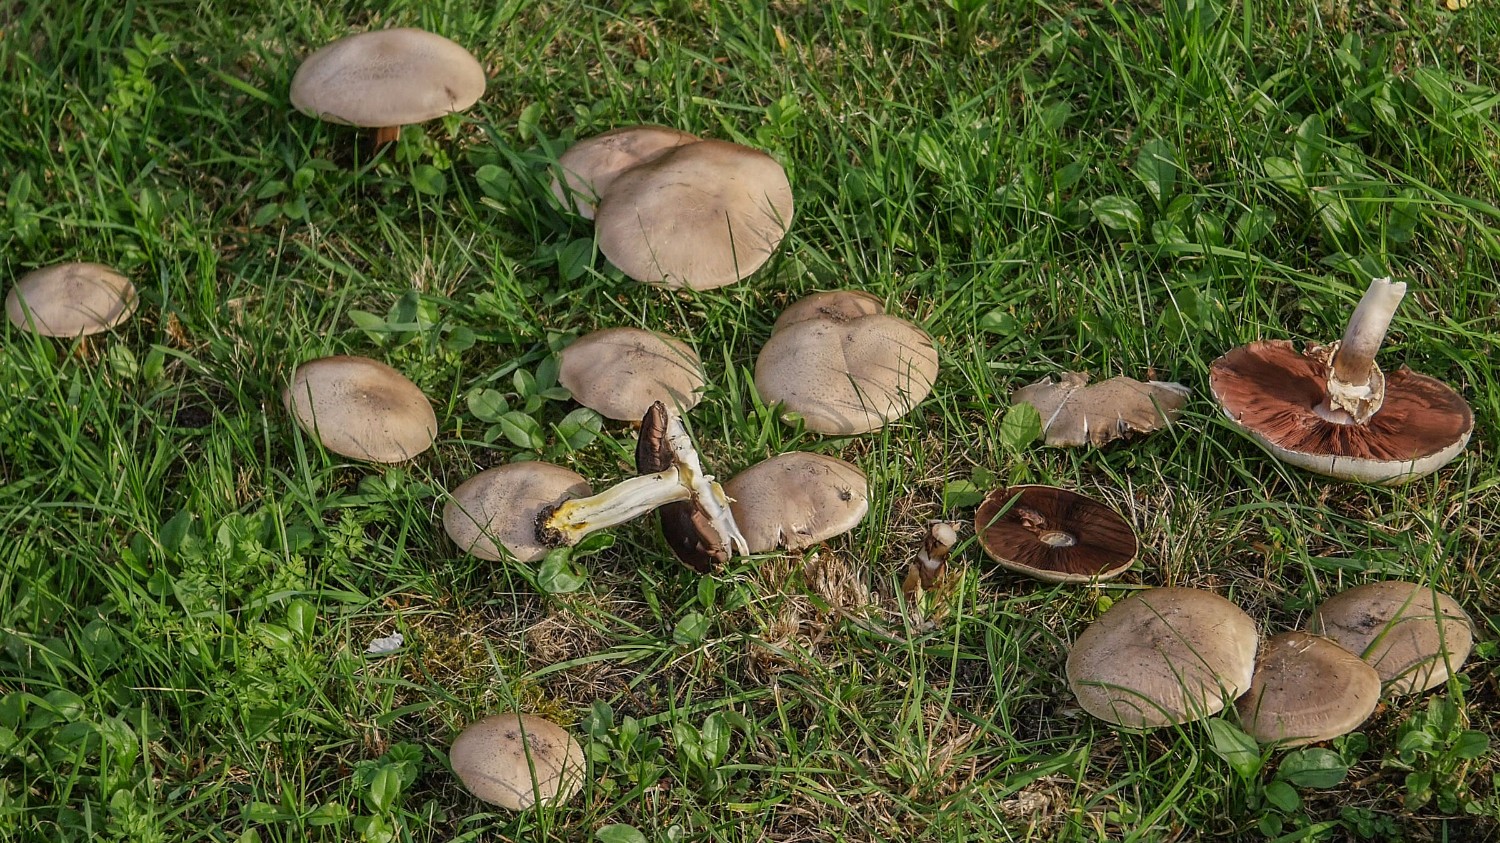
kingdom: Fungi
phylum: Basidiomycota
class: Agaricomycetes
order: Agaricales
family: Agaricaceae
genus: Agaricus
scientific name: Agaricus xanthodermus
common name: karbol-champignon
